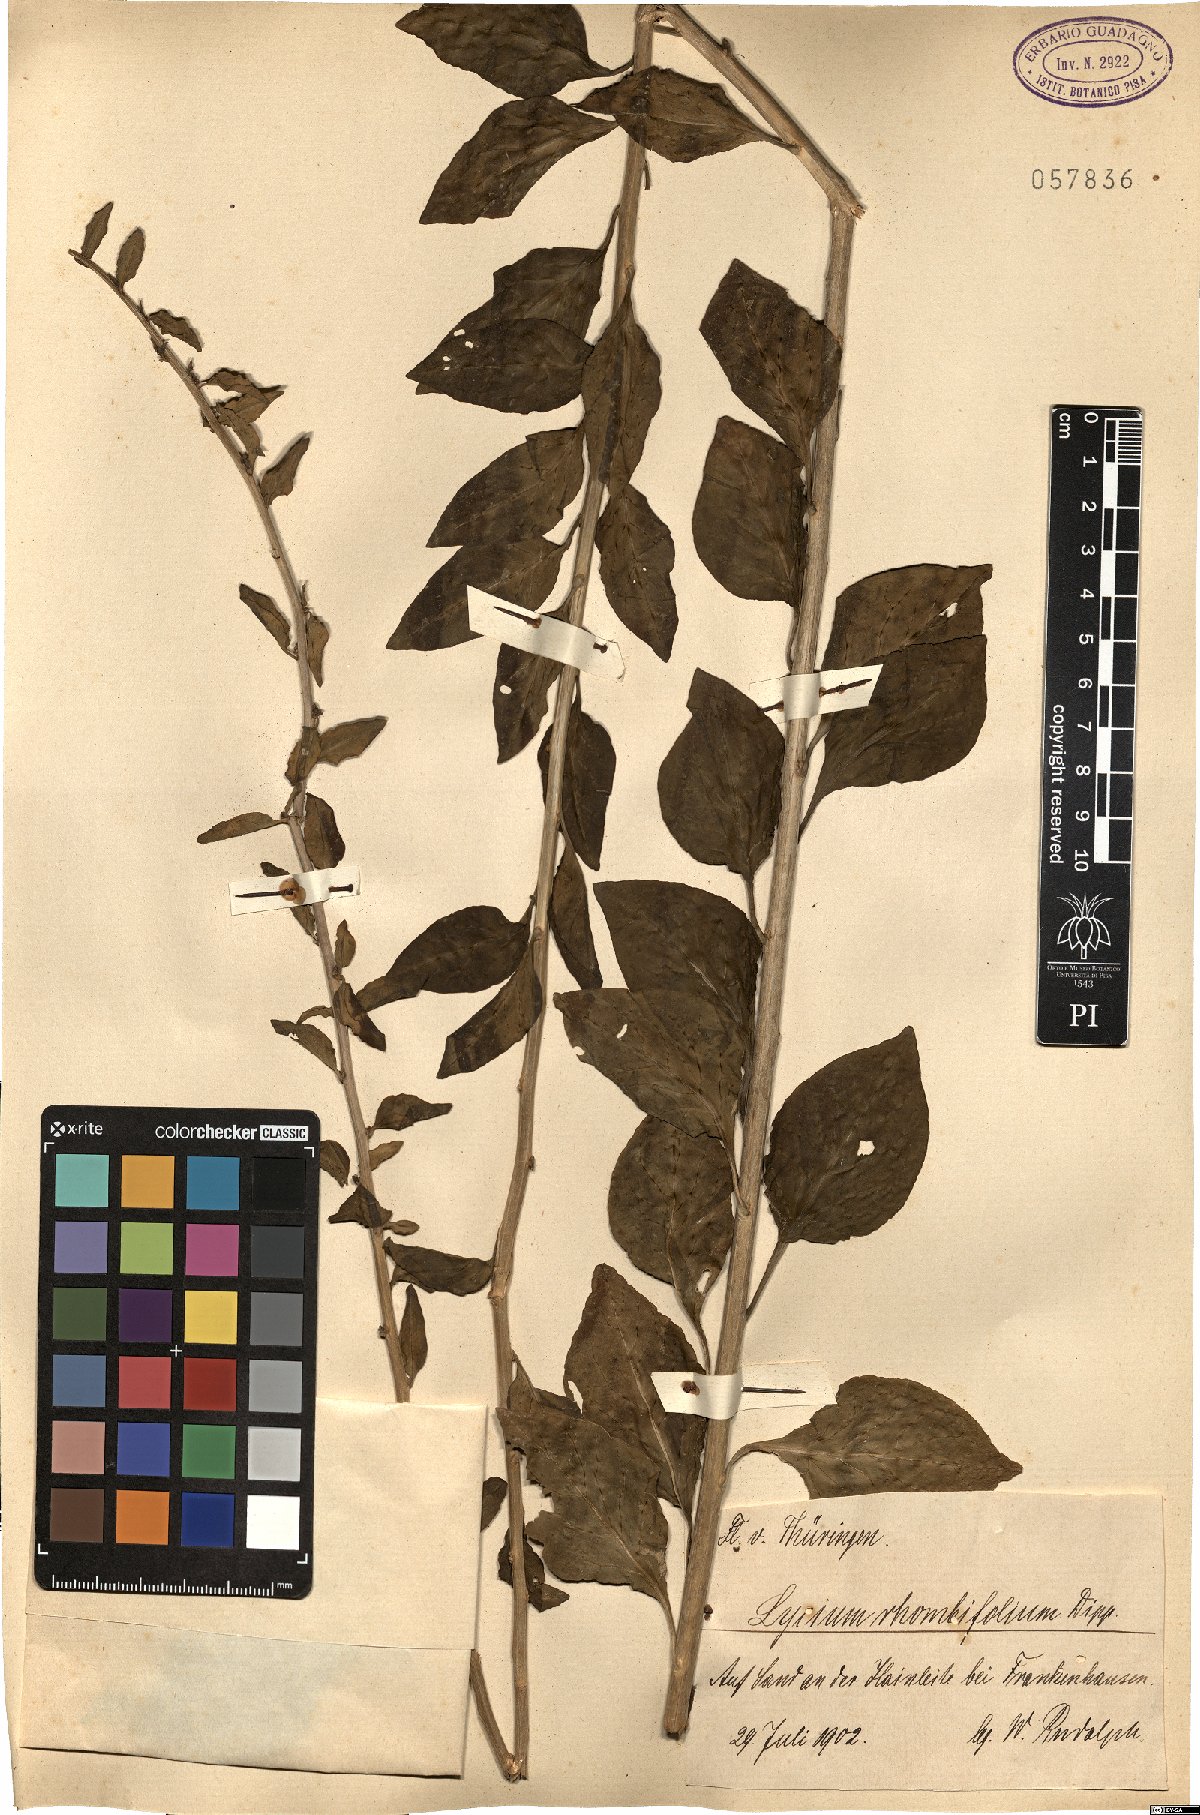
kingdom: Plantae
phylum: Tracheophyta
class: Magnoliopsida
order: Solanales
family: Solanaceae
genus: Lycium
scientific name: Lycium chinense
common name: Chinese teaplant
